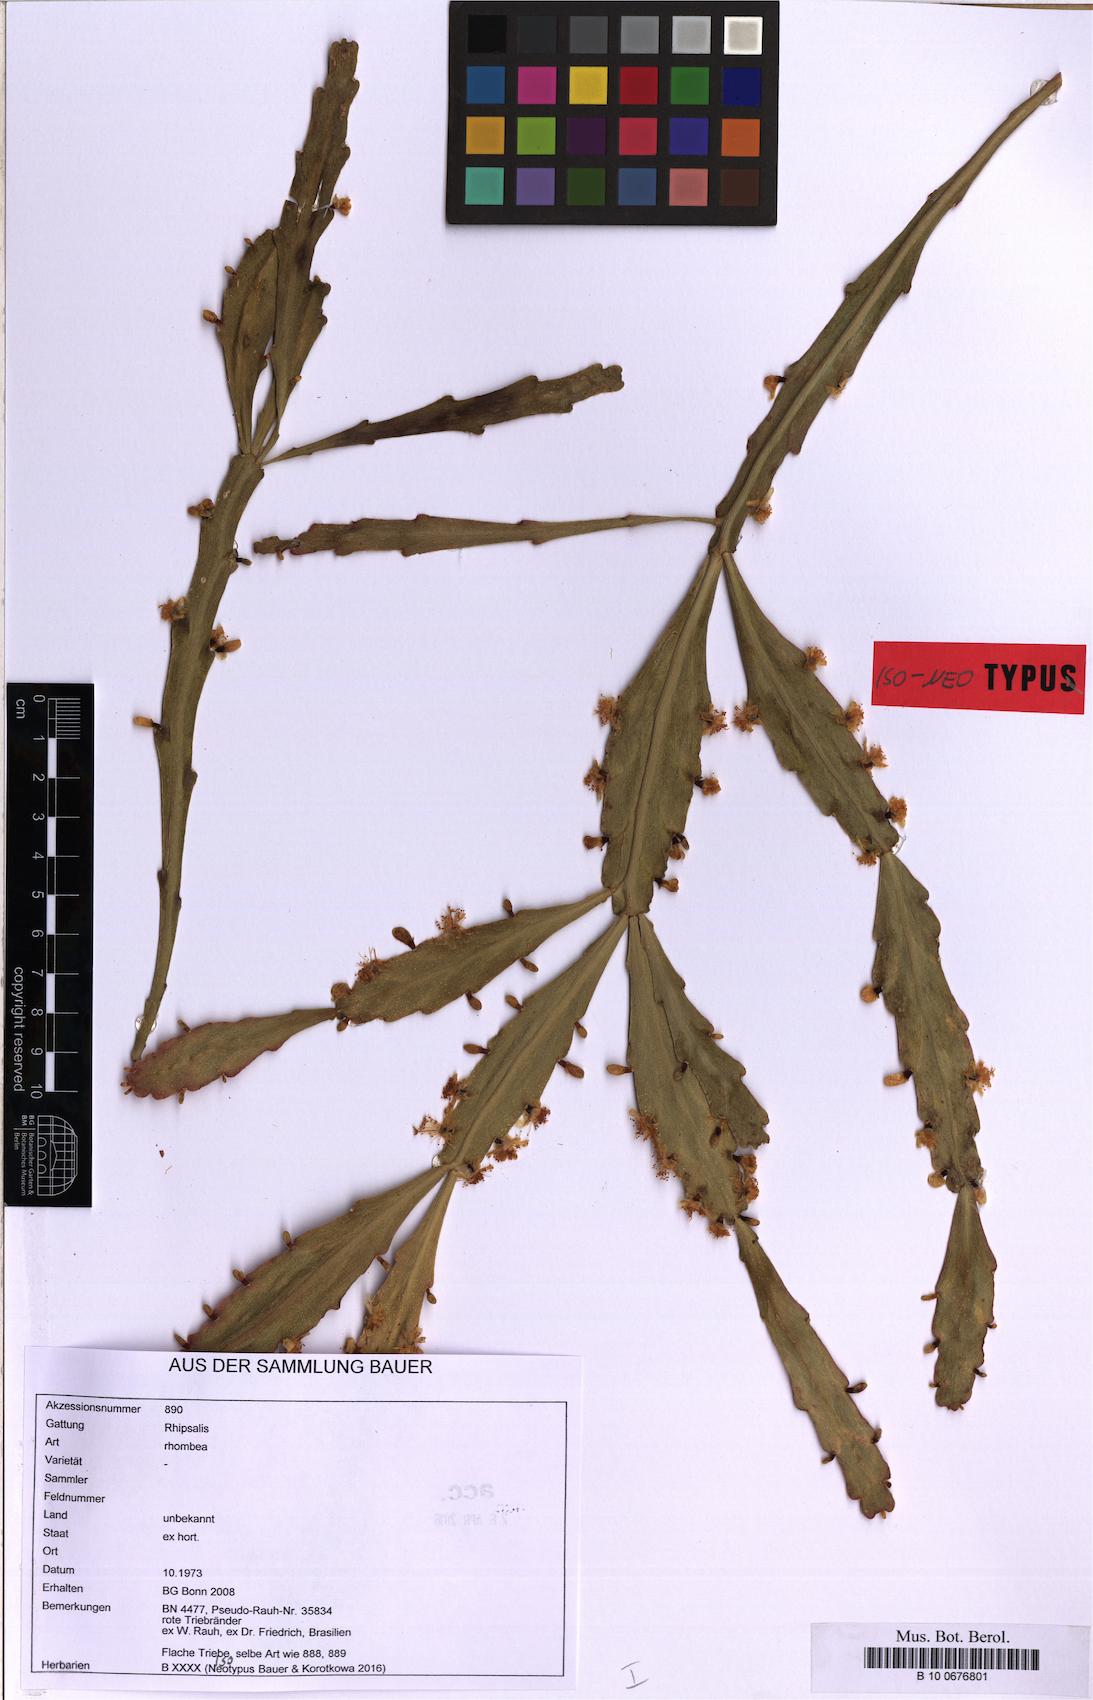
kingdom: Plantae
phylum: Tracheophyta
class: Magnoliopsida
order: Caryophyllales
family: Cactaceae
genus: Rhipsalis
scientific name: Rhipsalis rhombea
